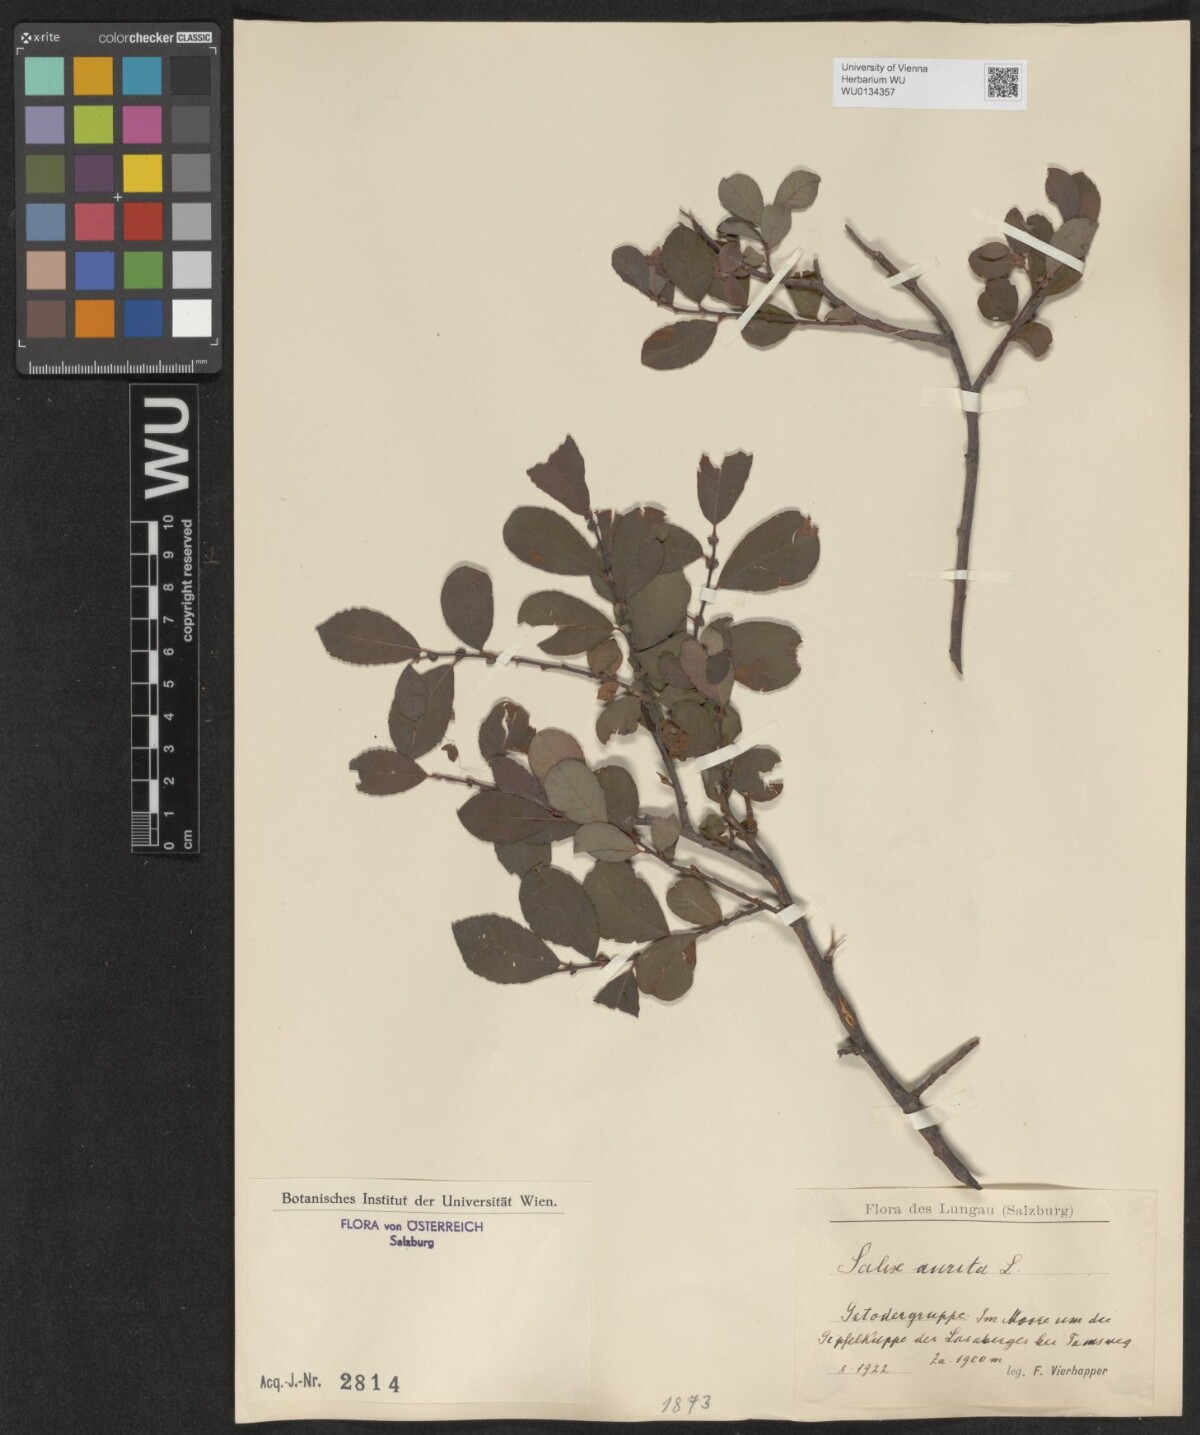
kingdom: Plantae
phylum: Tracheophyta
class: Magnoliopsida
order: Malpighiales
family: Salicaceae
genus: Salix
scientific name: Salix aurita
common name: Eared willow
